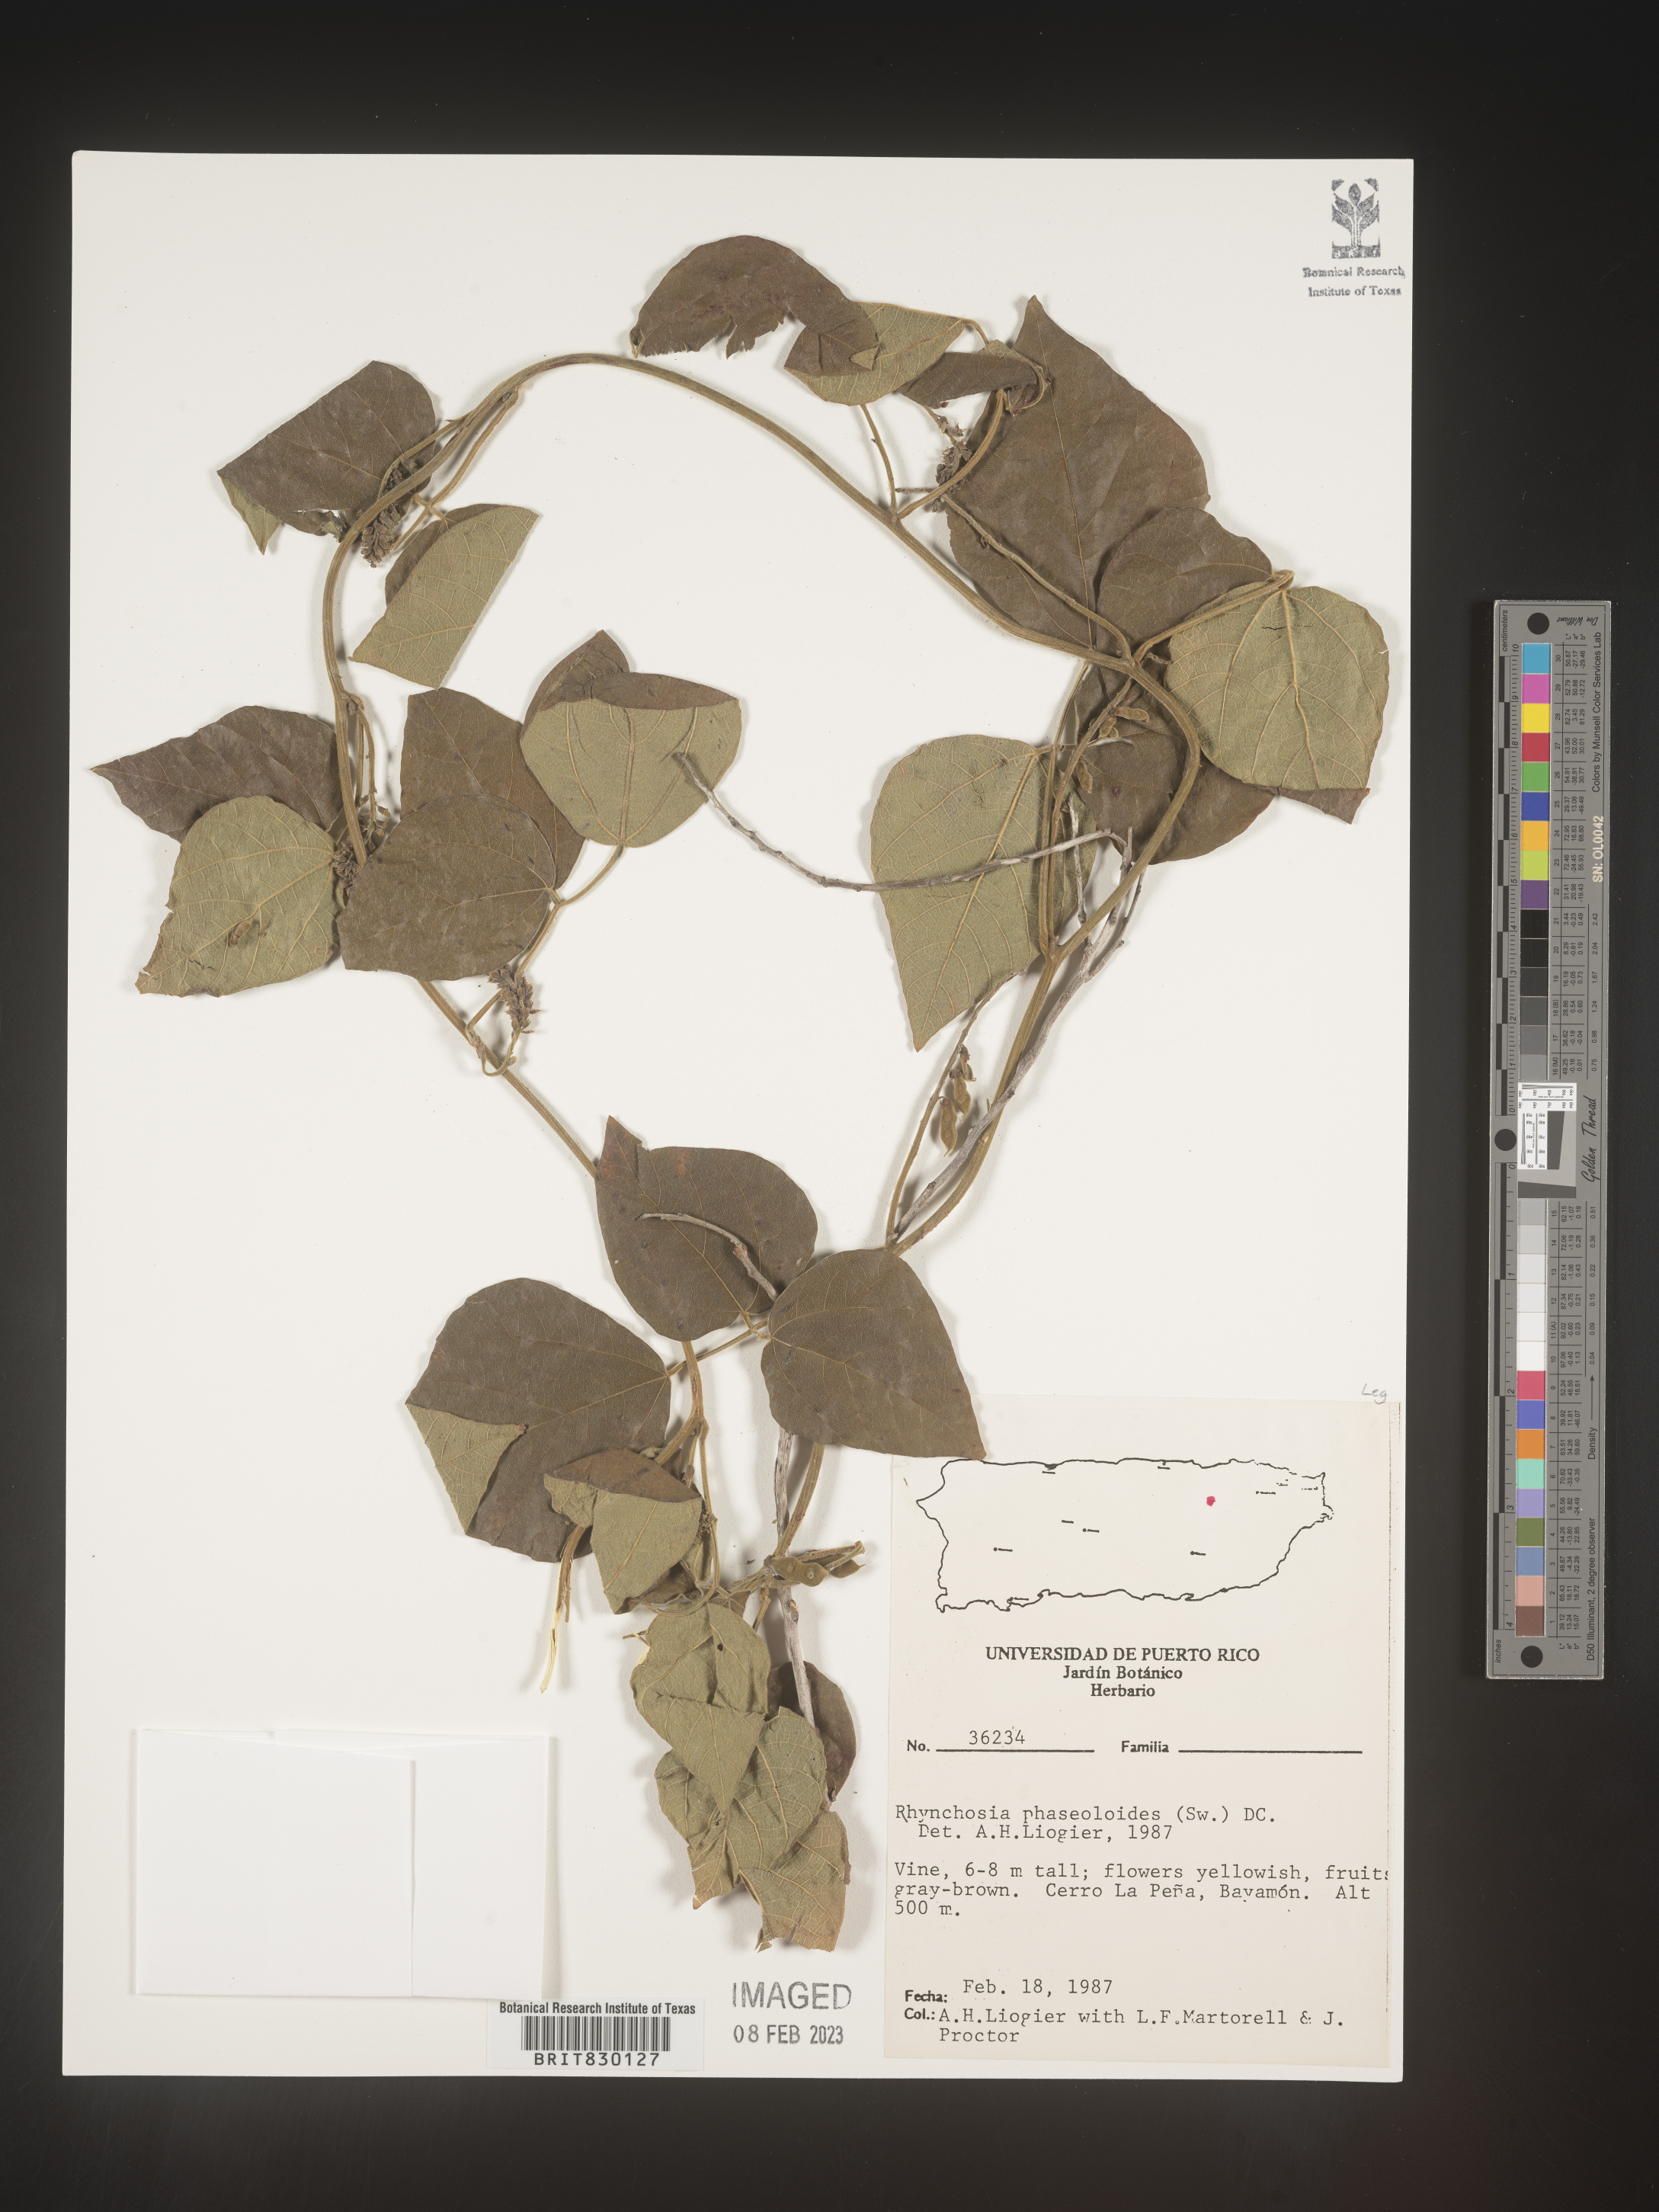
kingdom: Plantae
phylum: Tracheophyta
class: Magnoliopsida
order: Fabales
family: Fabaceae
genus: Rhynchosia
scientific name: Rhynchosia
